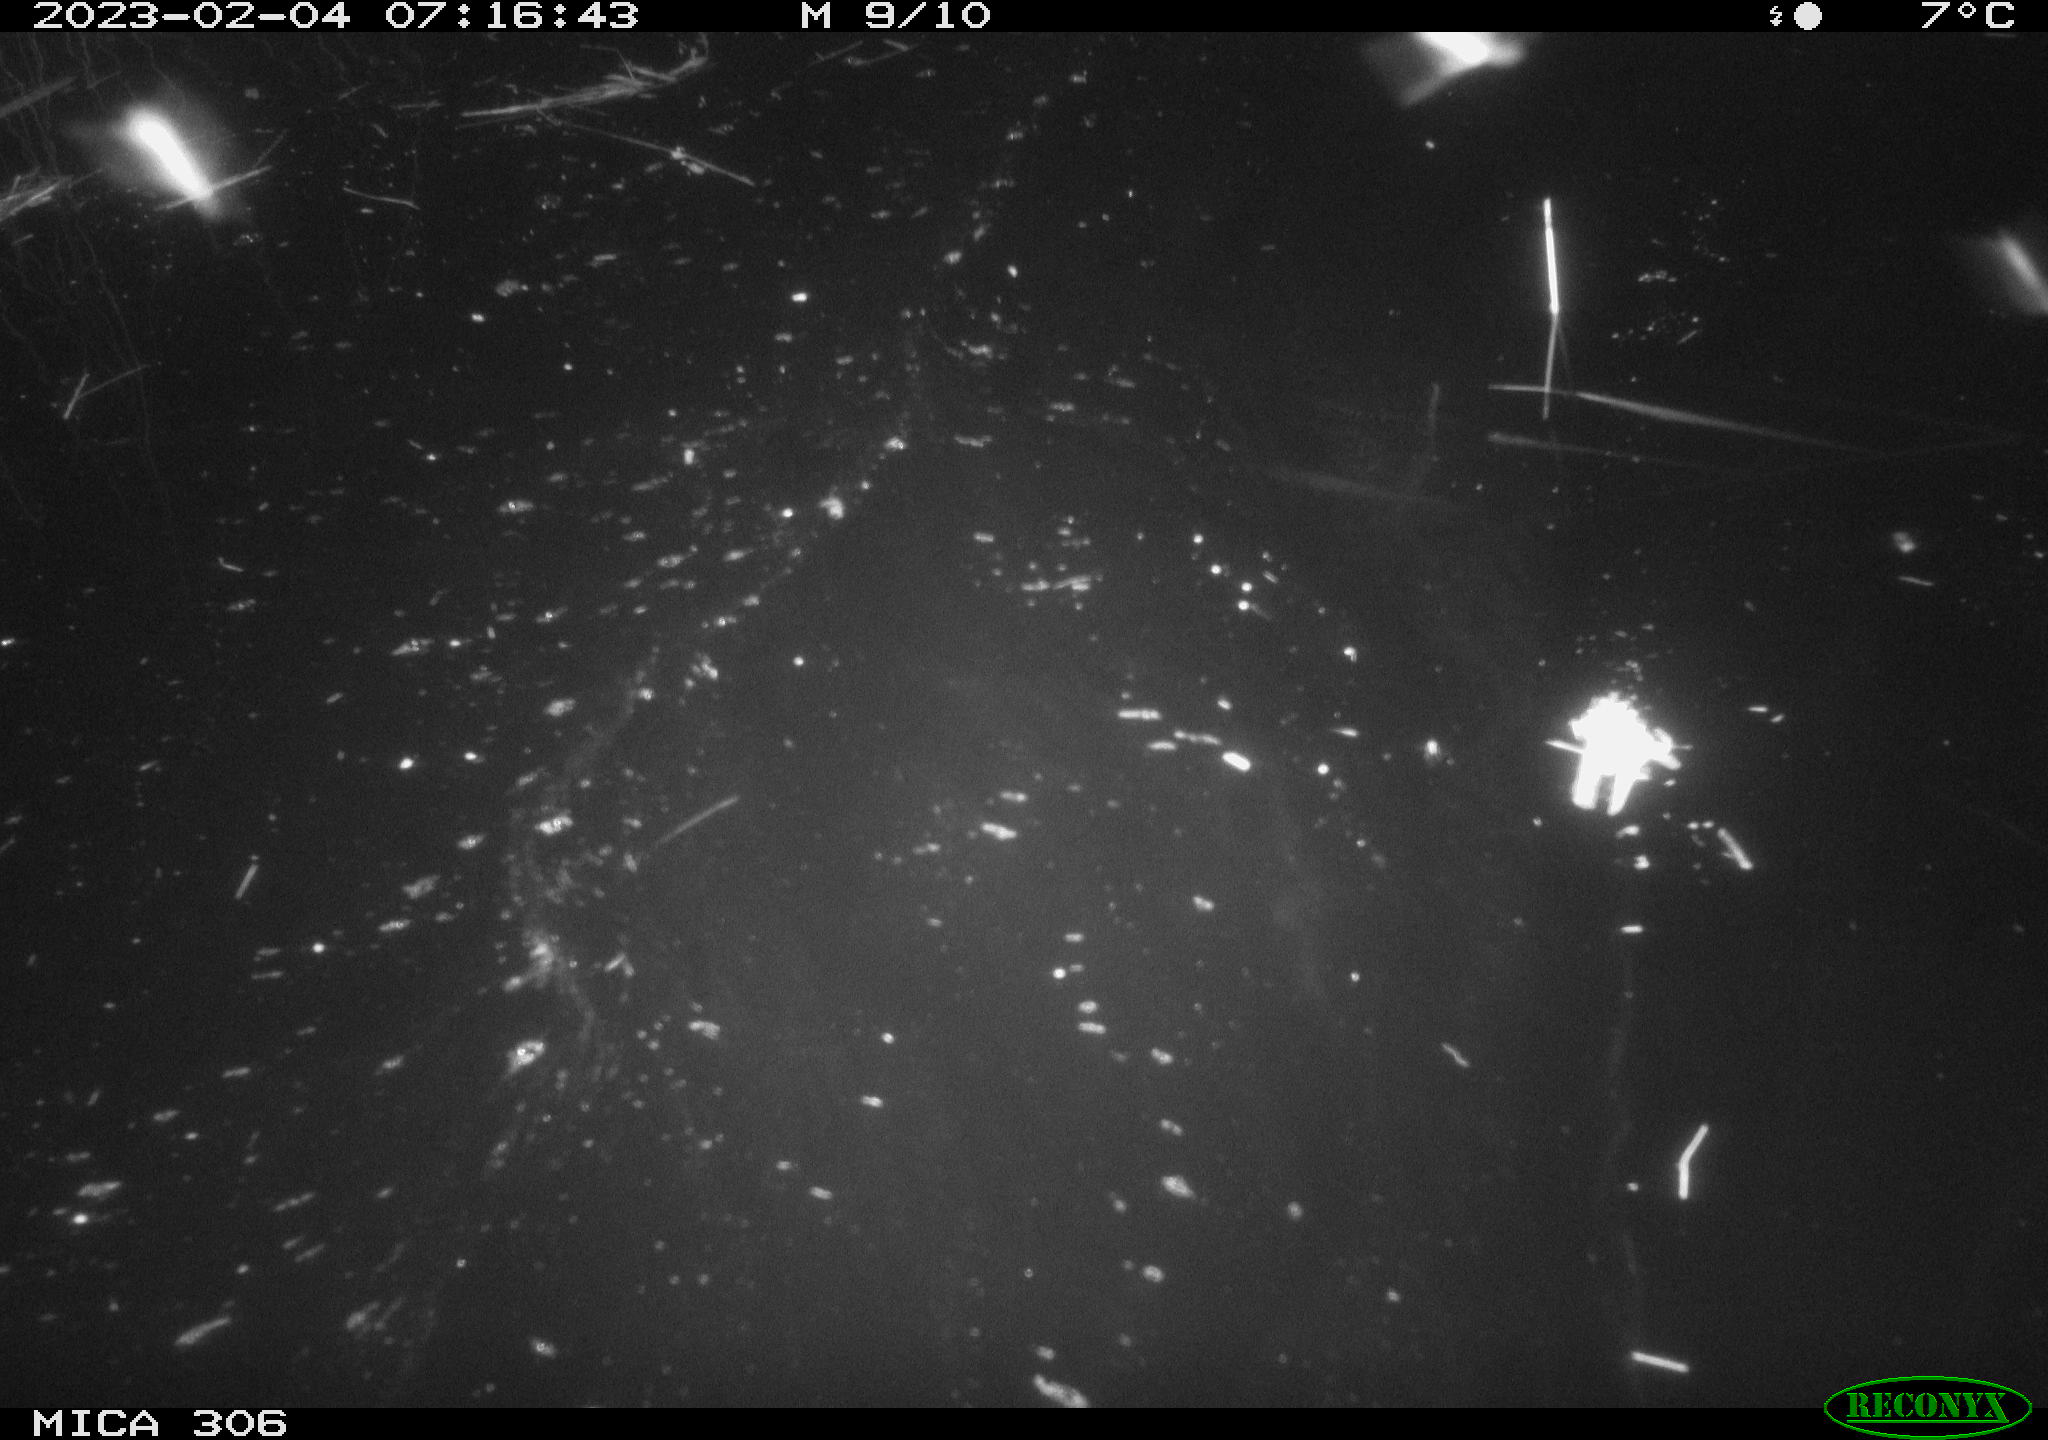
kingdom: Animalia
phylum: Chordata
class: Aves
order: Gruiformes
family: Rallidae
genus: Gallinula
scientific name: Gallinula chloropus
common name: Common moorhen
